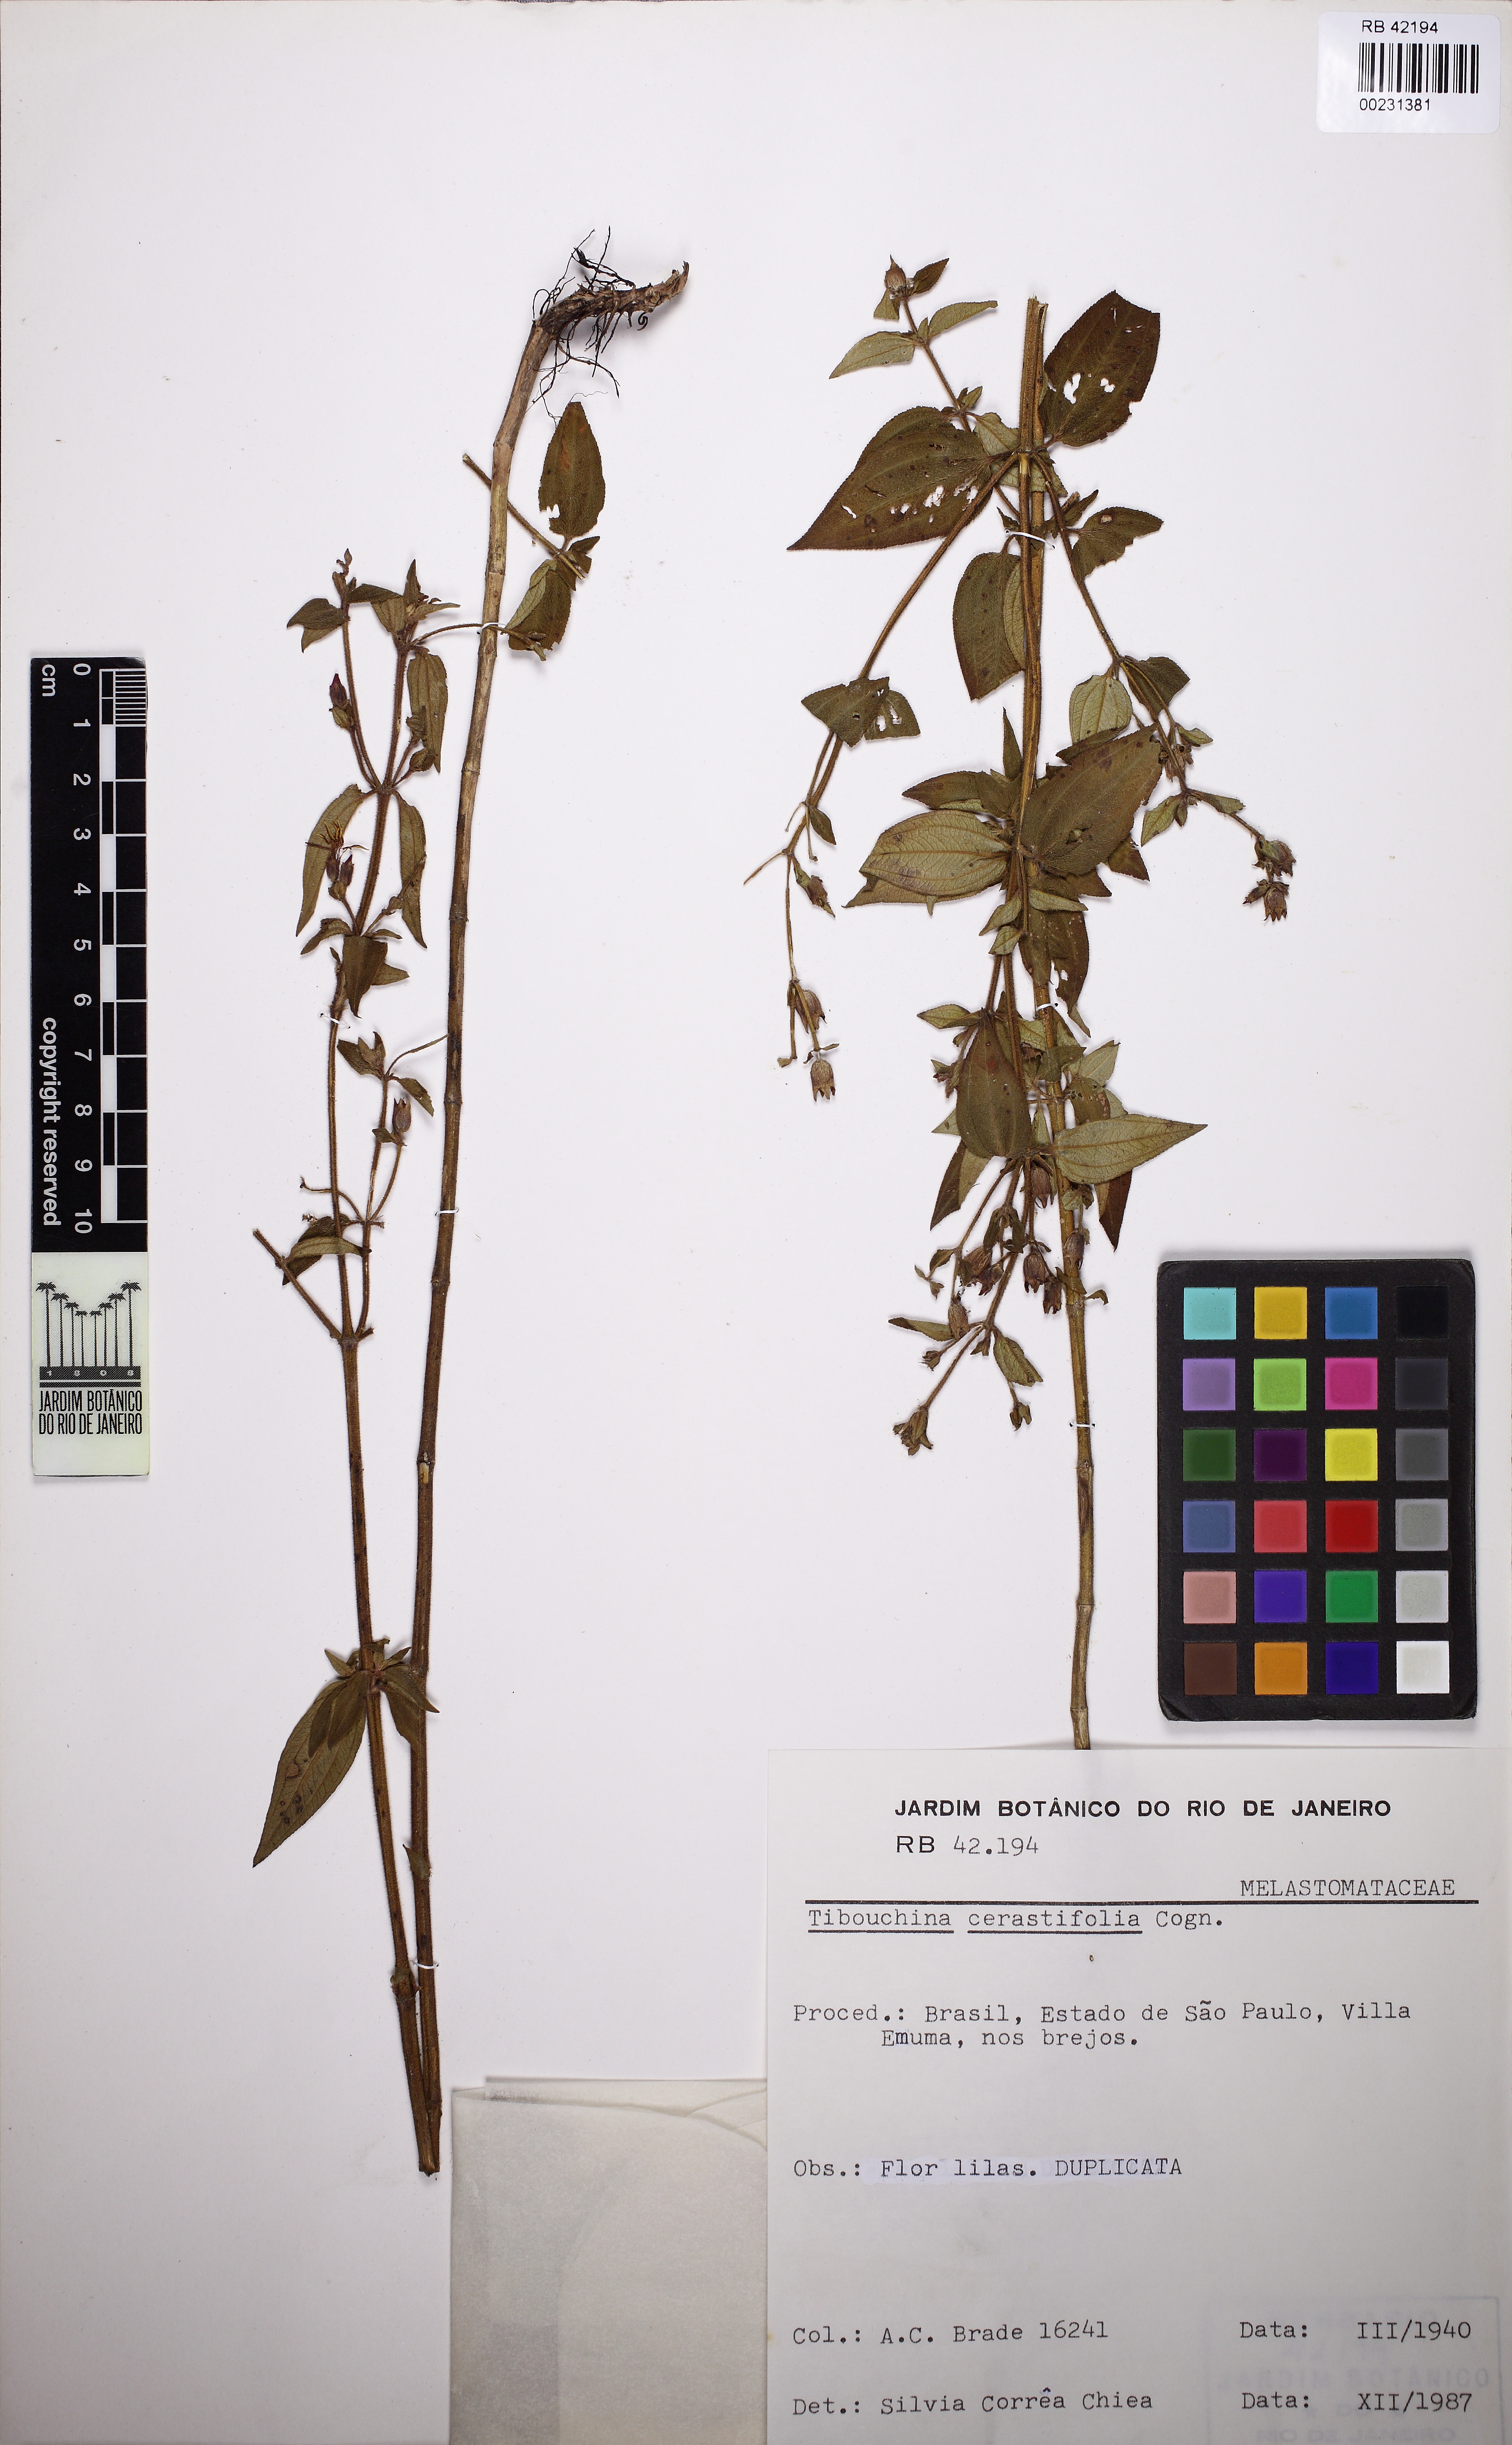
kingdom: Plantae
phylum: Tracheophyta
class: Magnoliopsida
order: Myrtales
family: Melastomataceae
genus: Chaetogastra
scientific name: Chaetogastra cerastifolia
